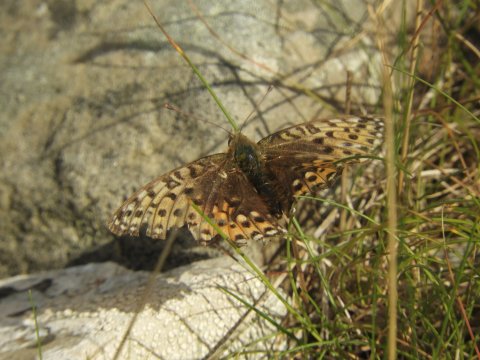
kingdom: Animalia
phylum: Arthropoda
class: Insecta
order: Lepidoptera
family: Nymphalidae
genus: Speyeria
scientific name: Speyeria aglaja
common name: Dark Green Fritillary
